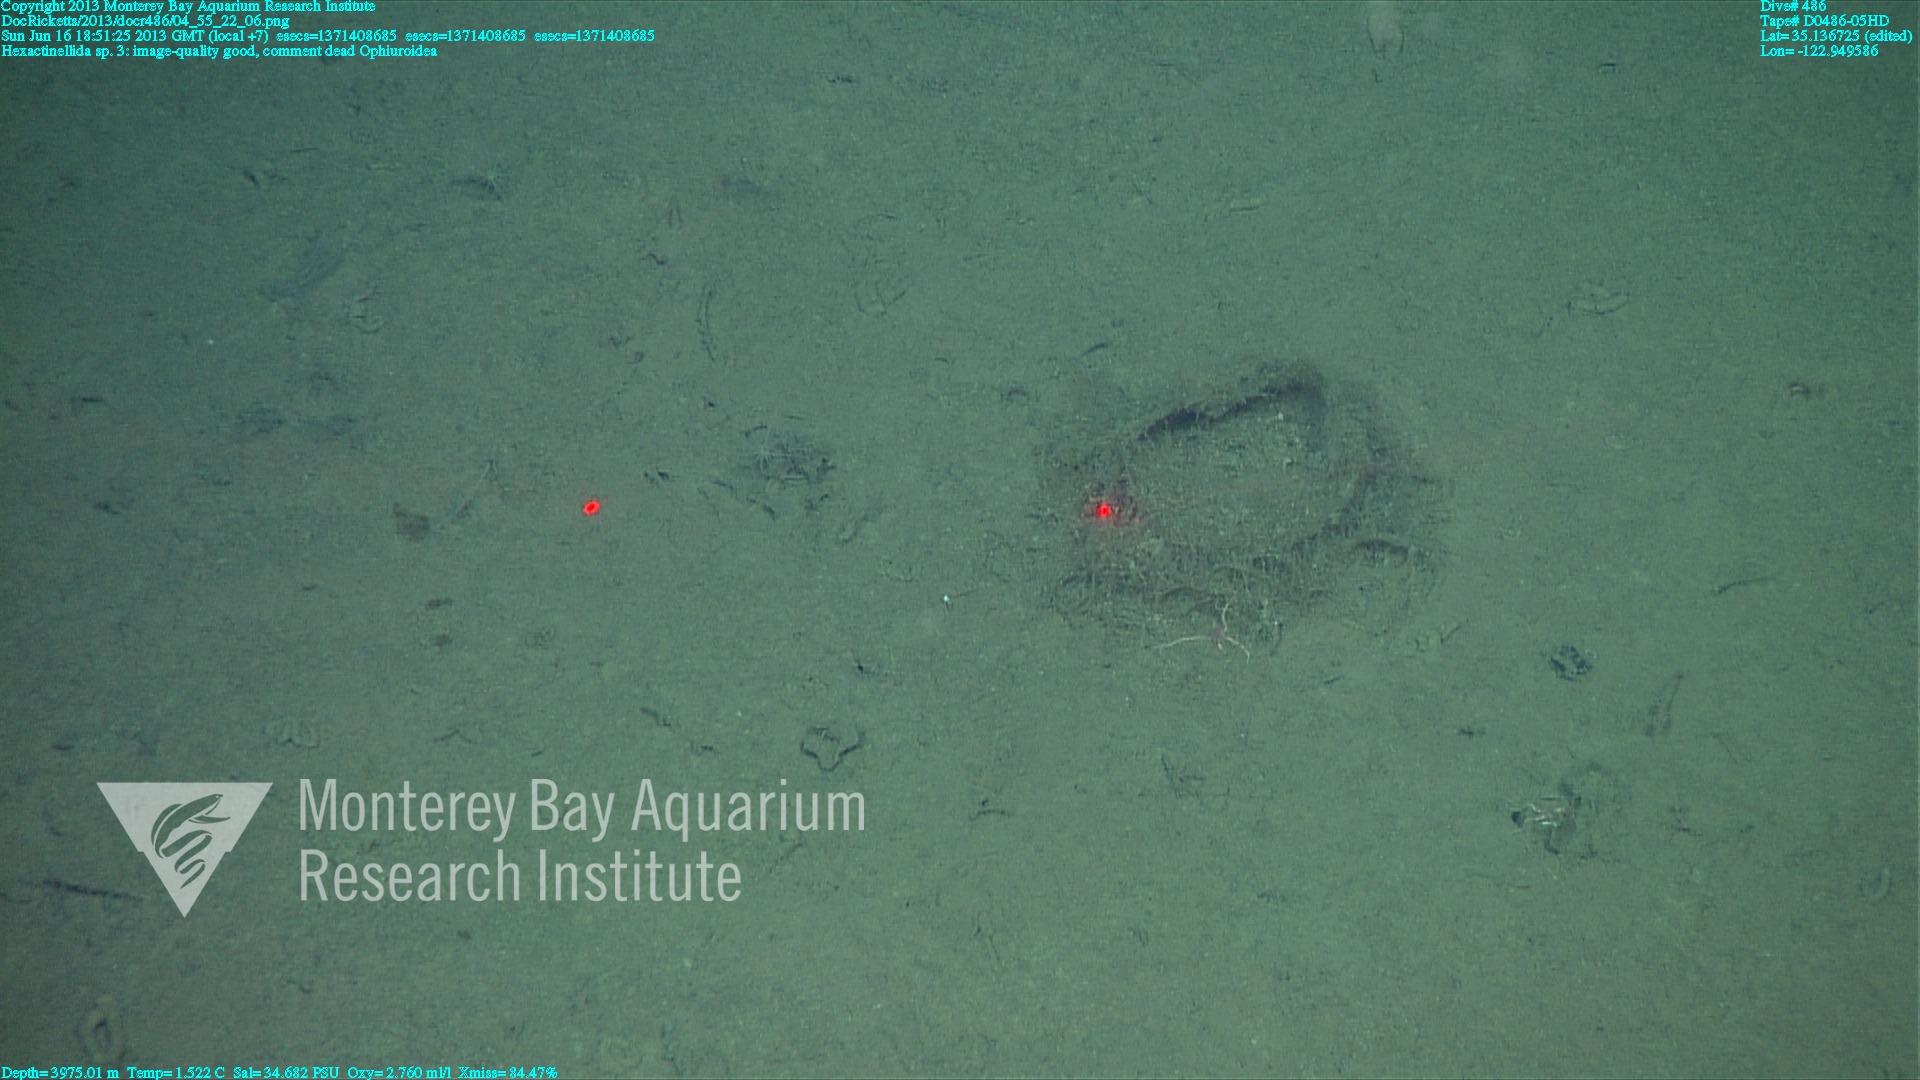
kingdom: Animalia
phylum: Porifera
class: Hexactinellida
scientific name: Hexactinellida
